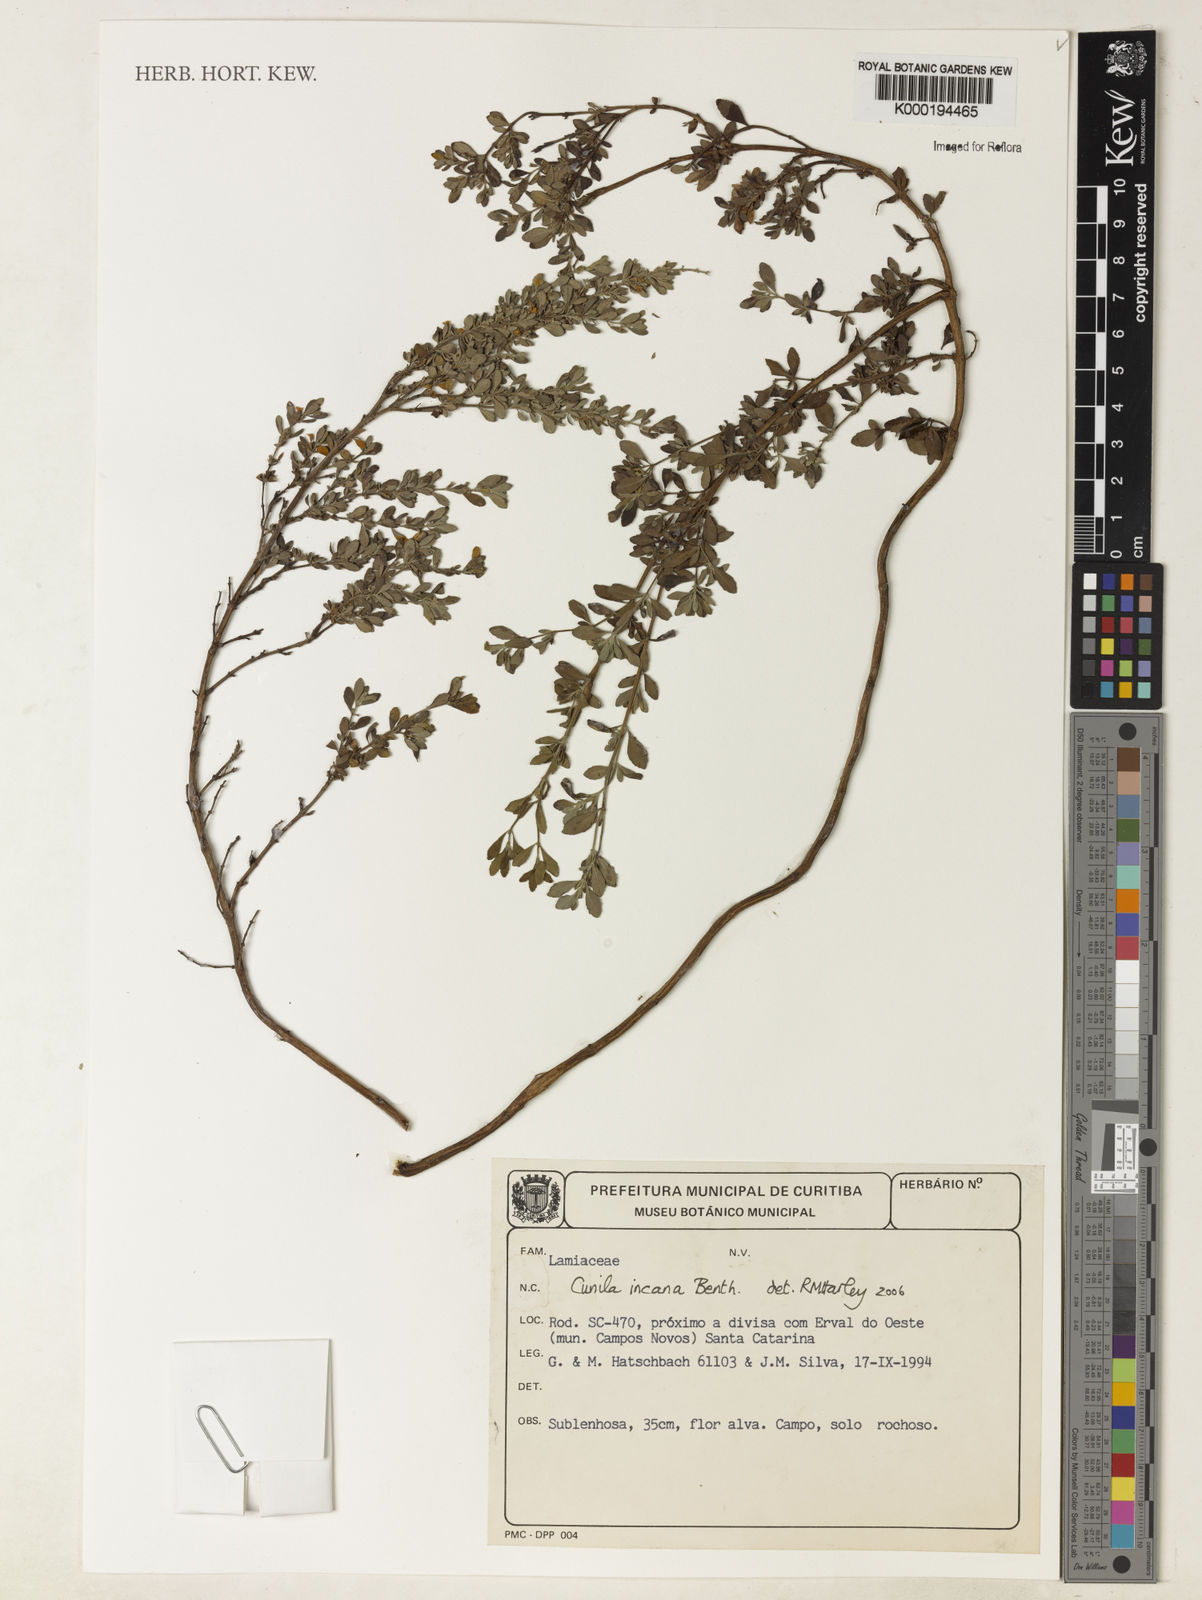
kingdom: Plantae
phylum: Tracheophyta
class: Magnoliopsida
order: Lamiales
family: Lamiaceae
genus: Cunila
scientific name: Cunila incana
